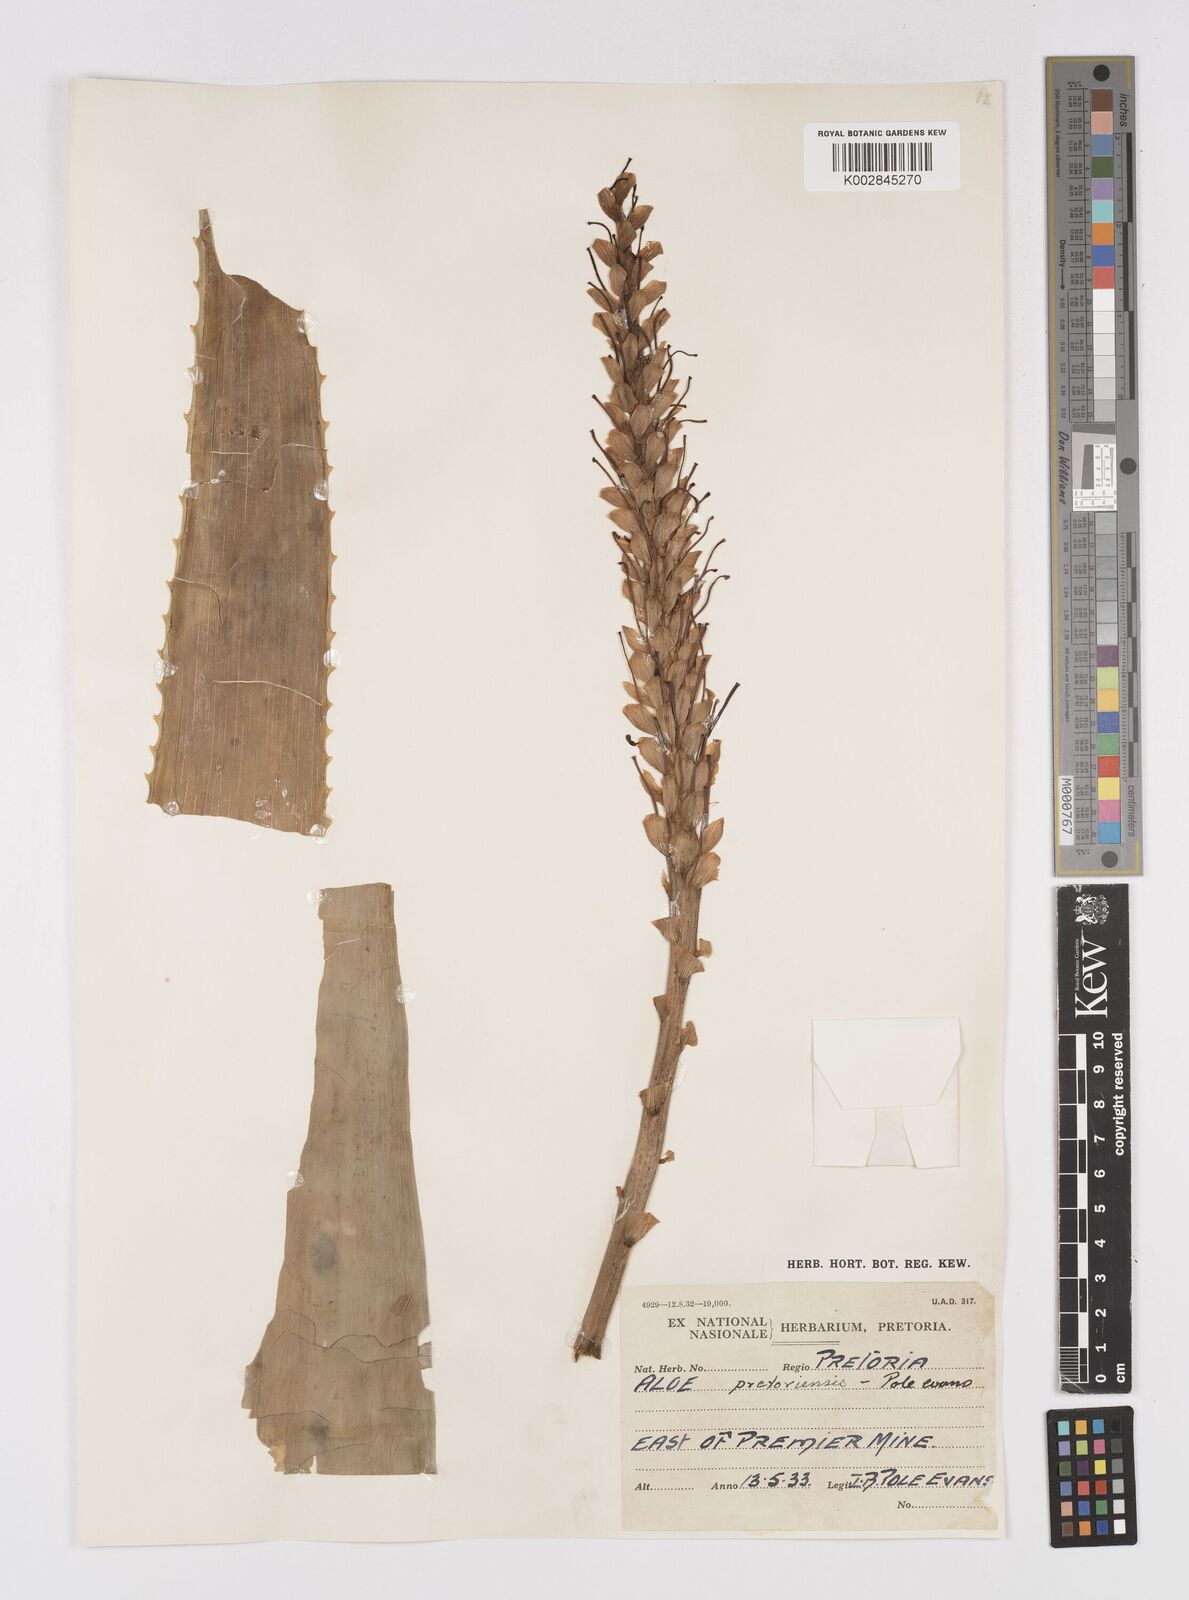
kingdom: Plantae
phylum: Tracheophyta
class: Liliopsida
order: Asparagales
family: Asphodelaceae
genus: Aloe
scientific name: Aloe pretoriensis
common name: Pretoria aloe
